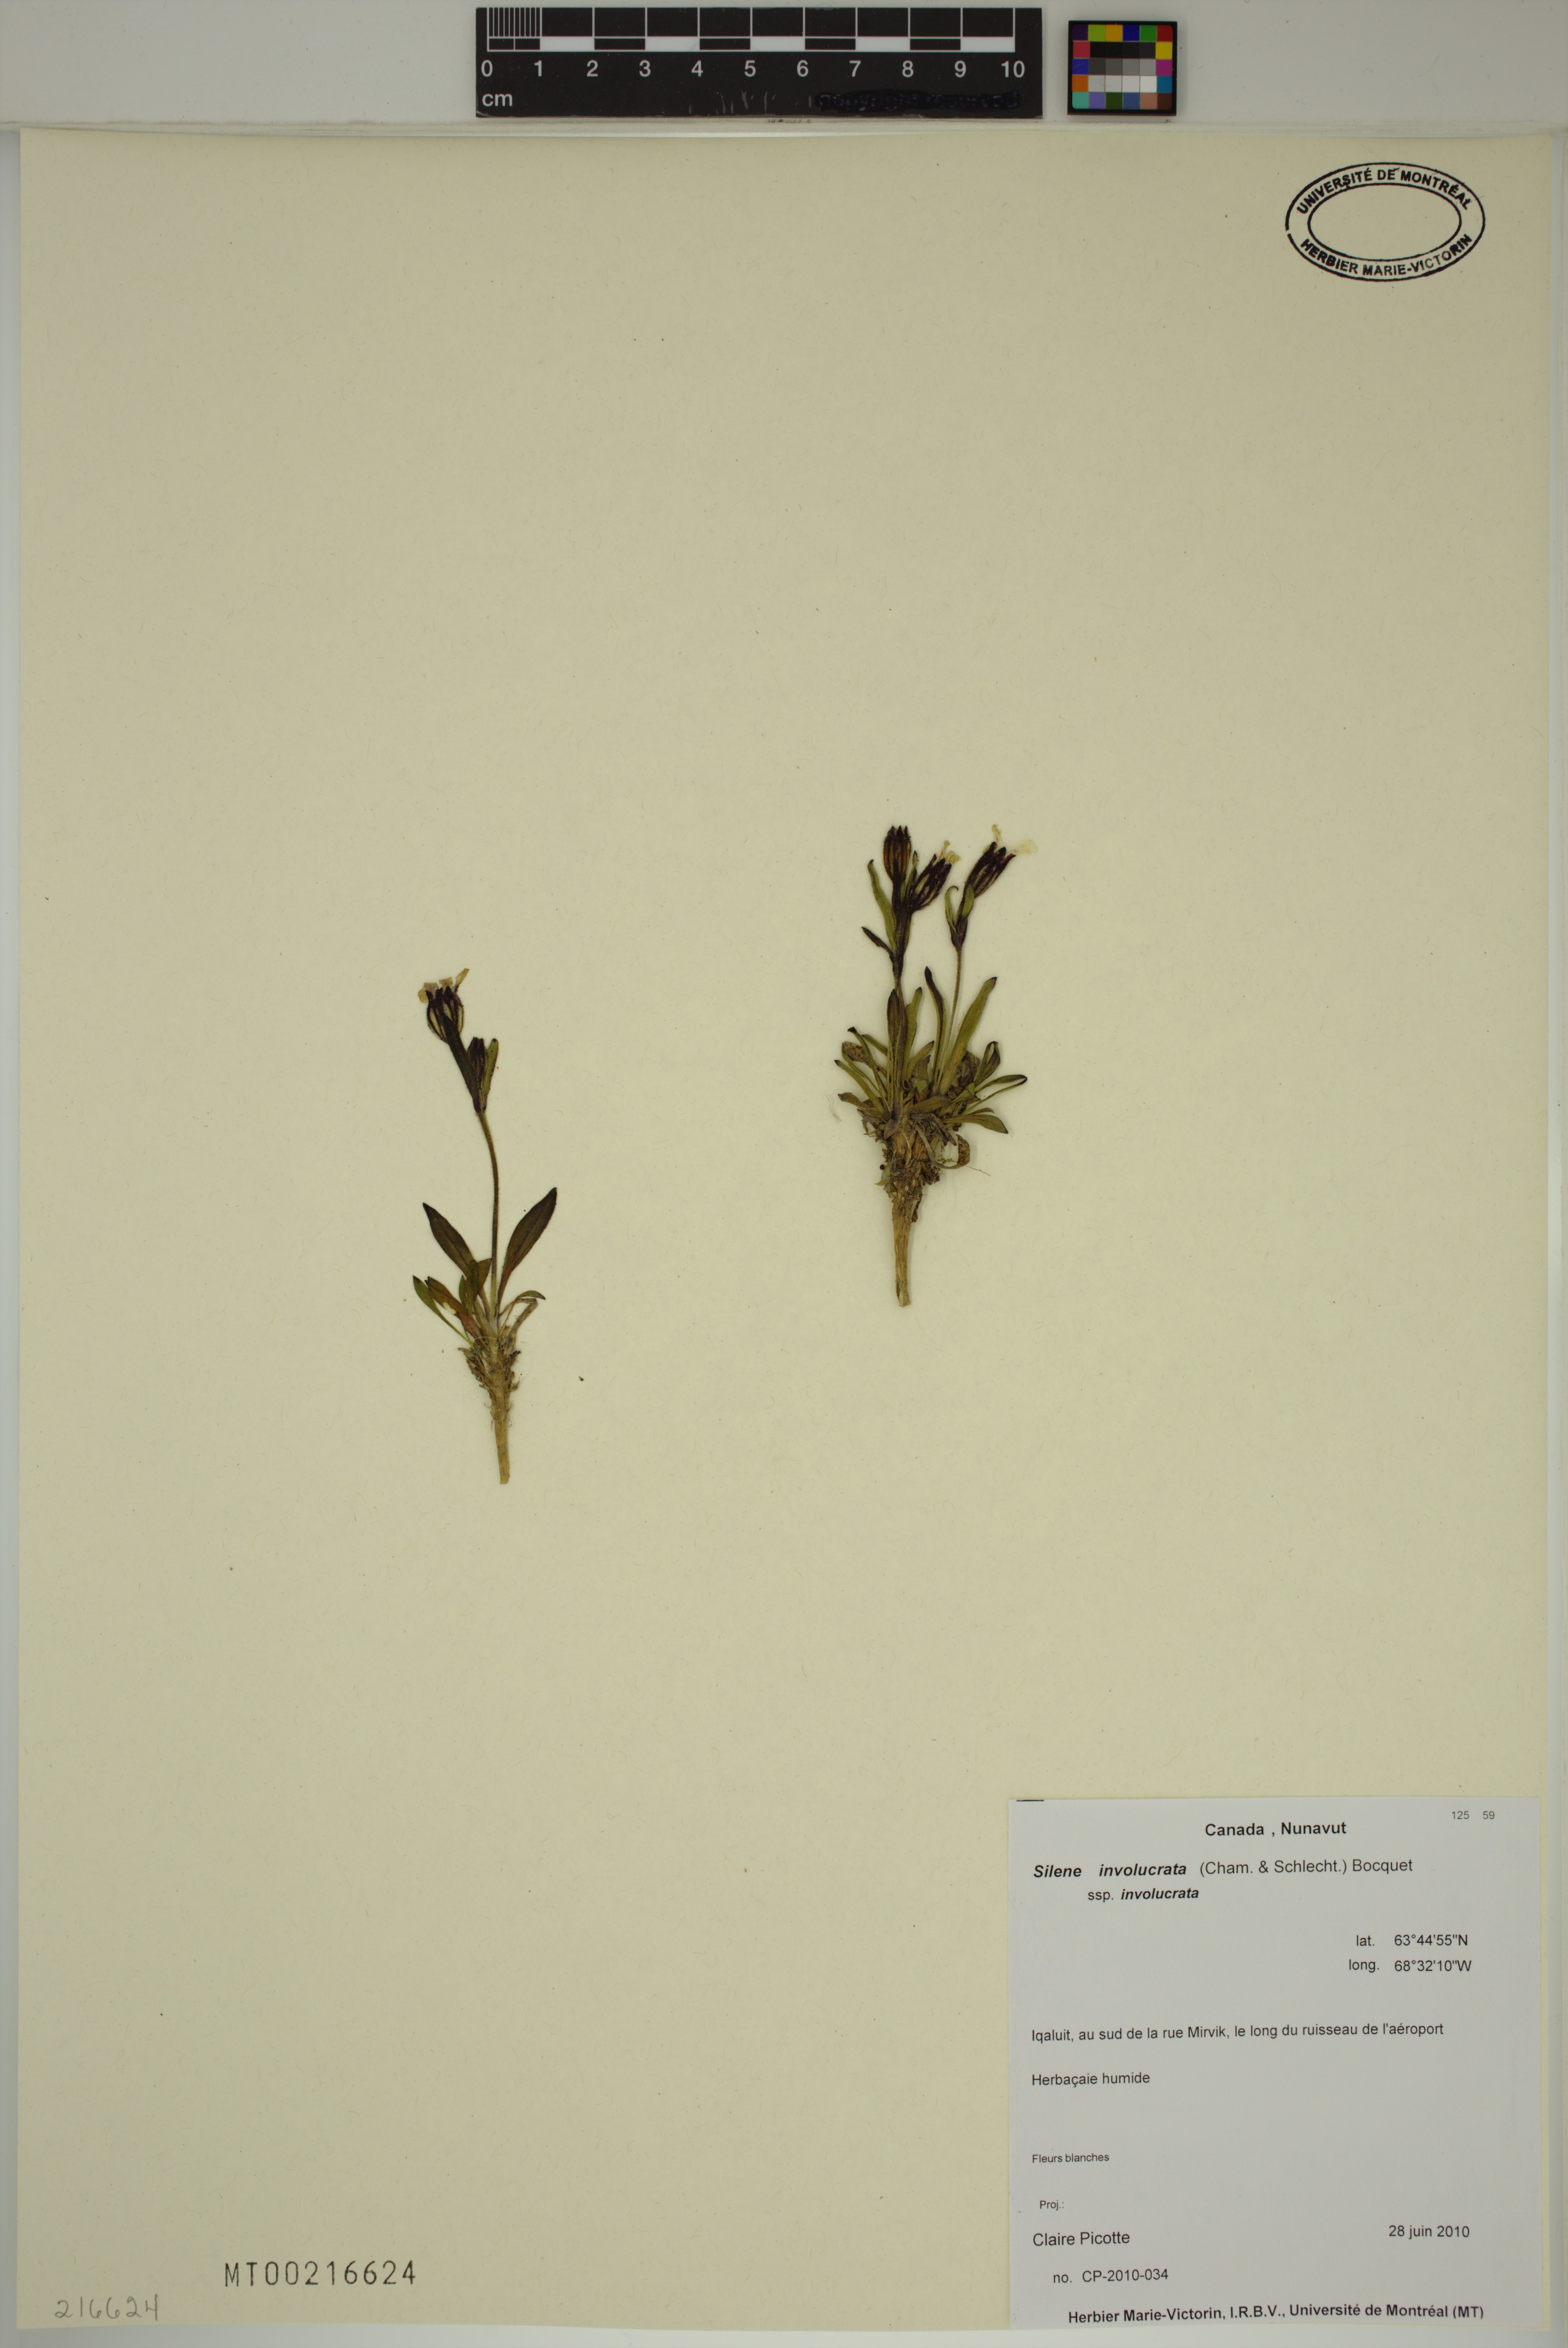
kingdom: Plantae
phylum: Tracheophyta
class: Magnoliopsida
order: Caryophyllales
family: Caryophyllaceae
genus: Silene
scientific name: Silene involucrata
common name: Greater arctic campion
